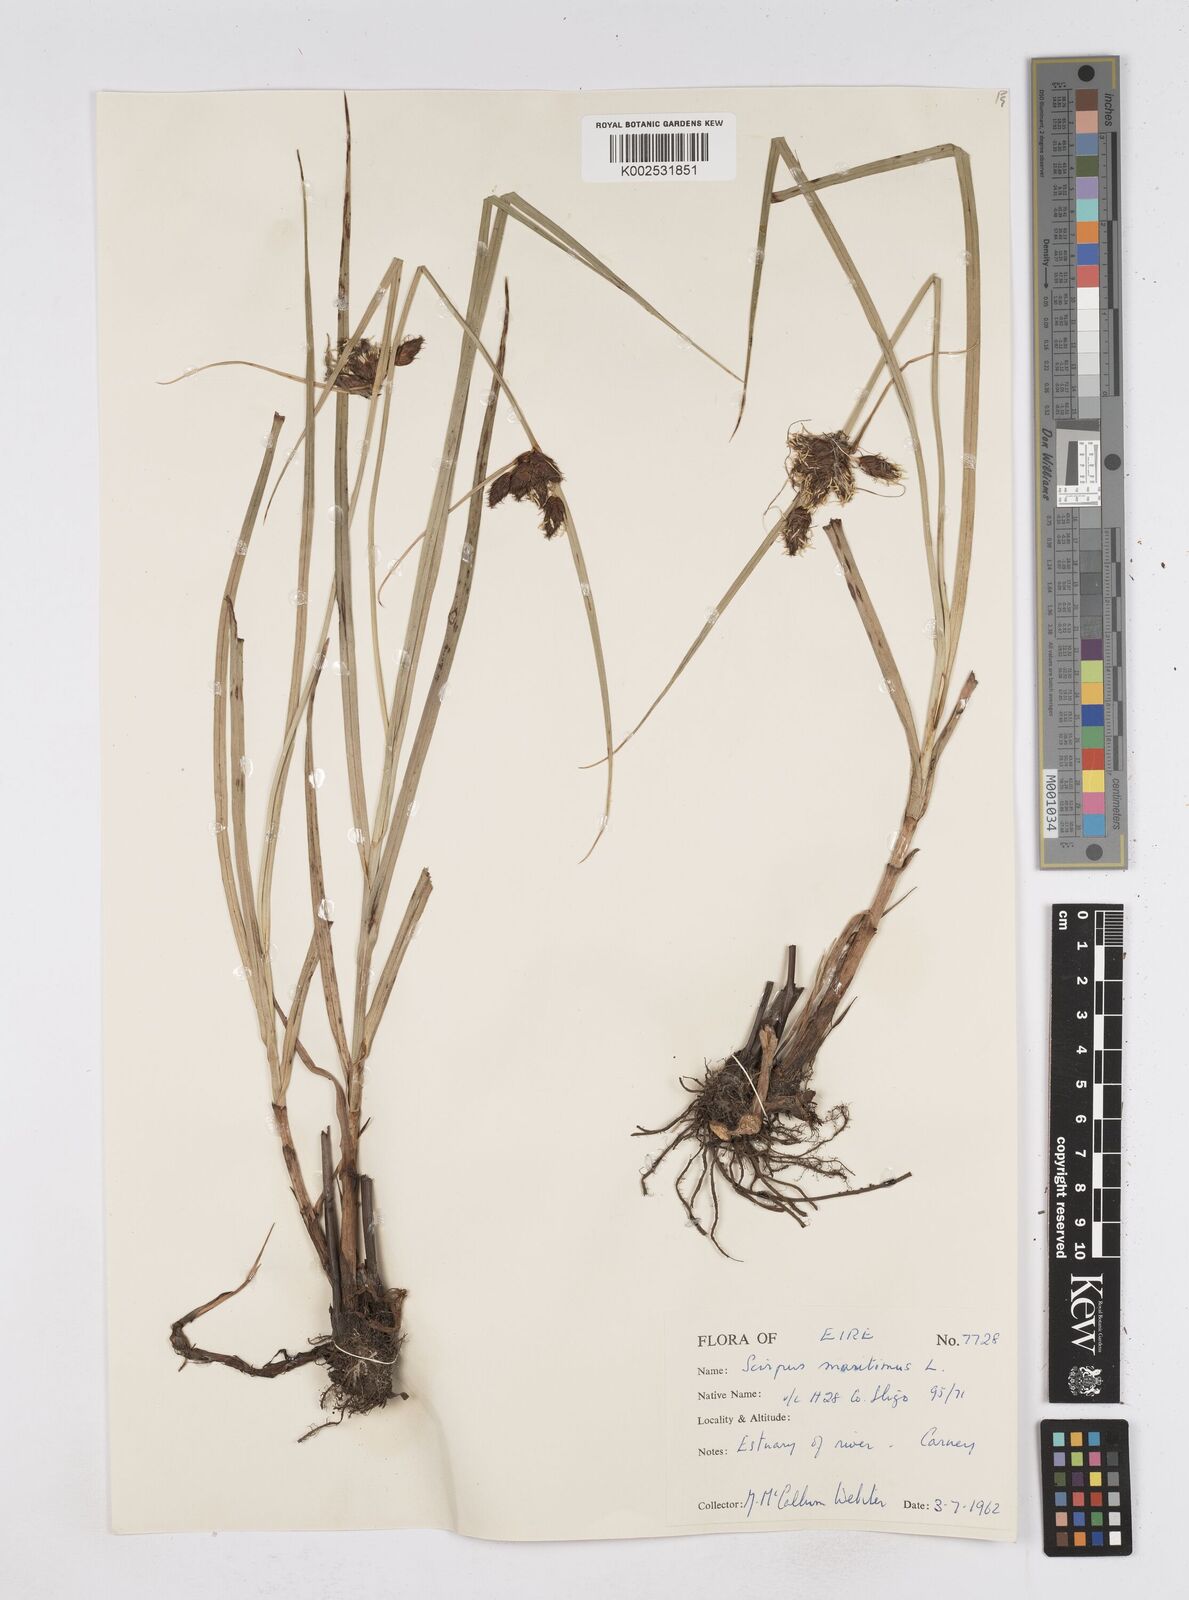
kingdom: Plantae
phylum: Tracheophyta
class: Liliopsida
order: Poales
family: Cyperaceae
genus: Bolboschoenus
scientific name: Bolboschoenus maritimus
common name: Sea club-rush
